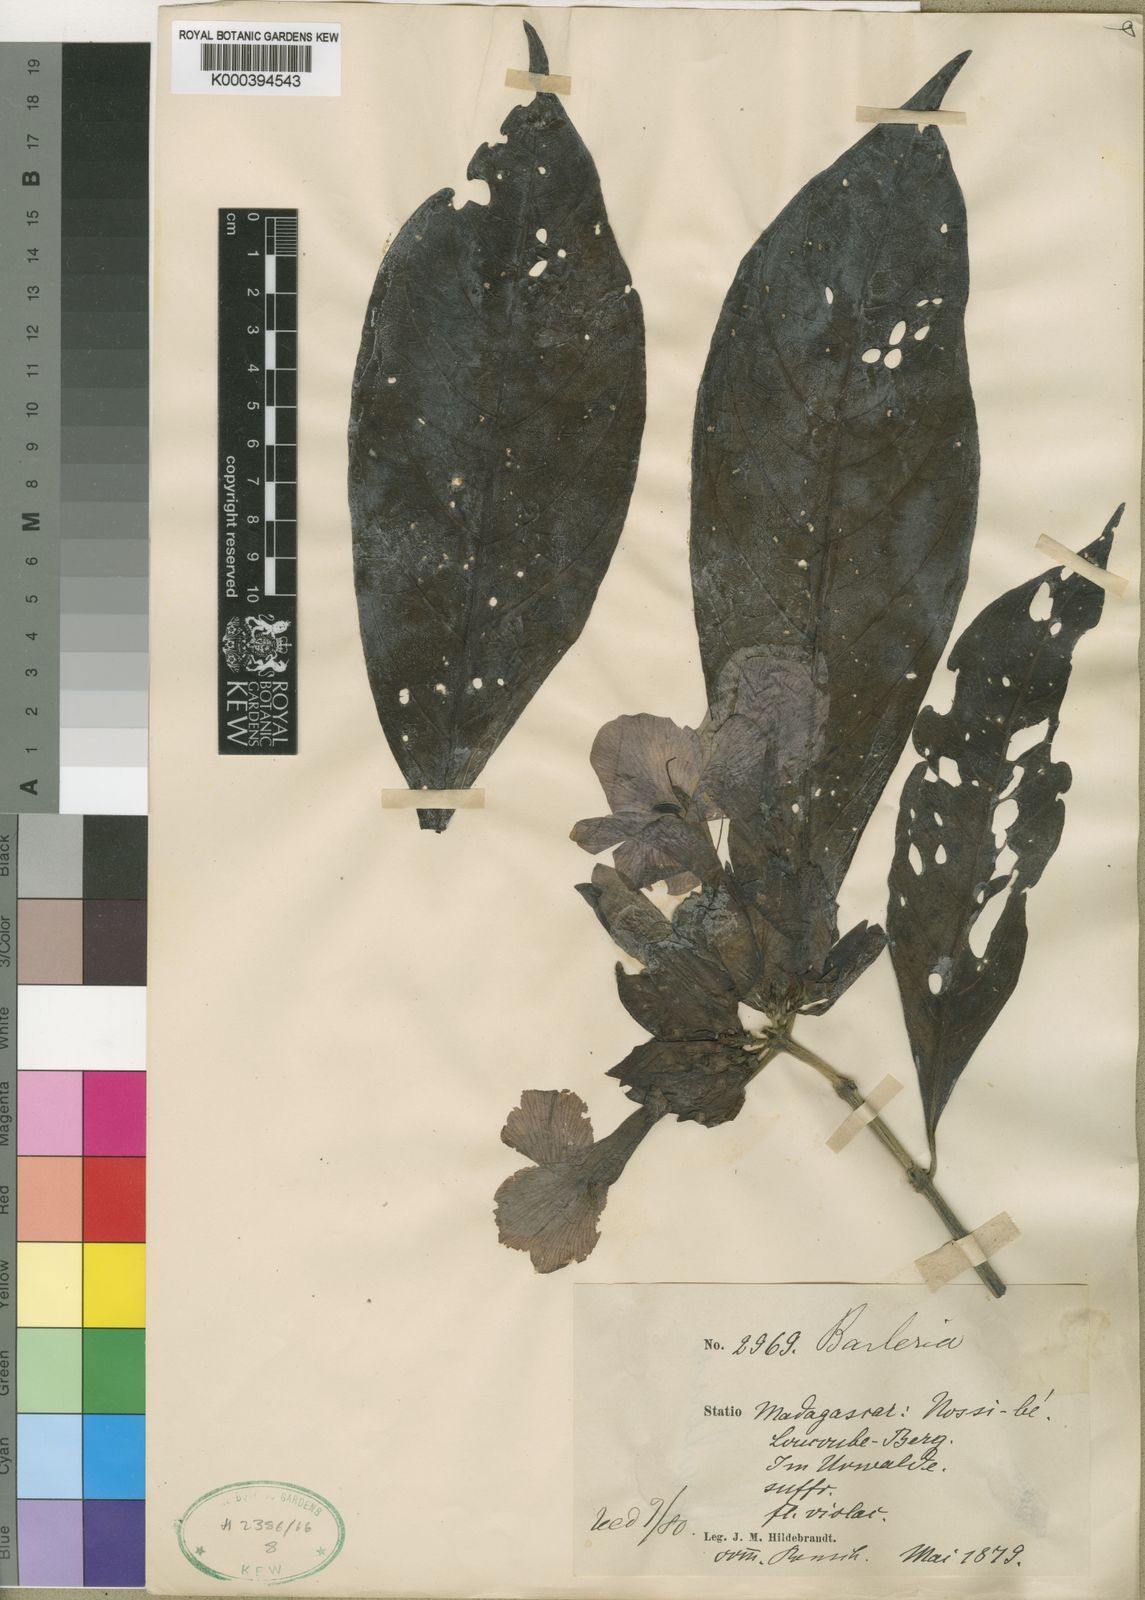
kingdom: Plantae
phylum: Tracheophyta
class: Magnoliopsida
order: Lamiales
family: Acanthaceae
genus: Barleria
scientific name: Barleria pulchra
